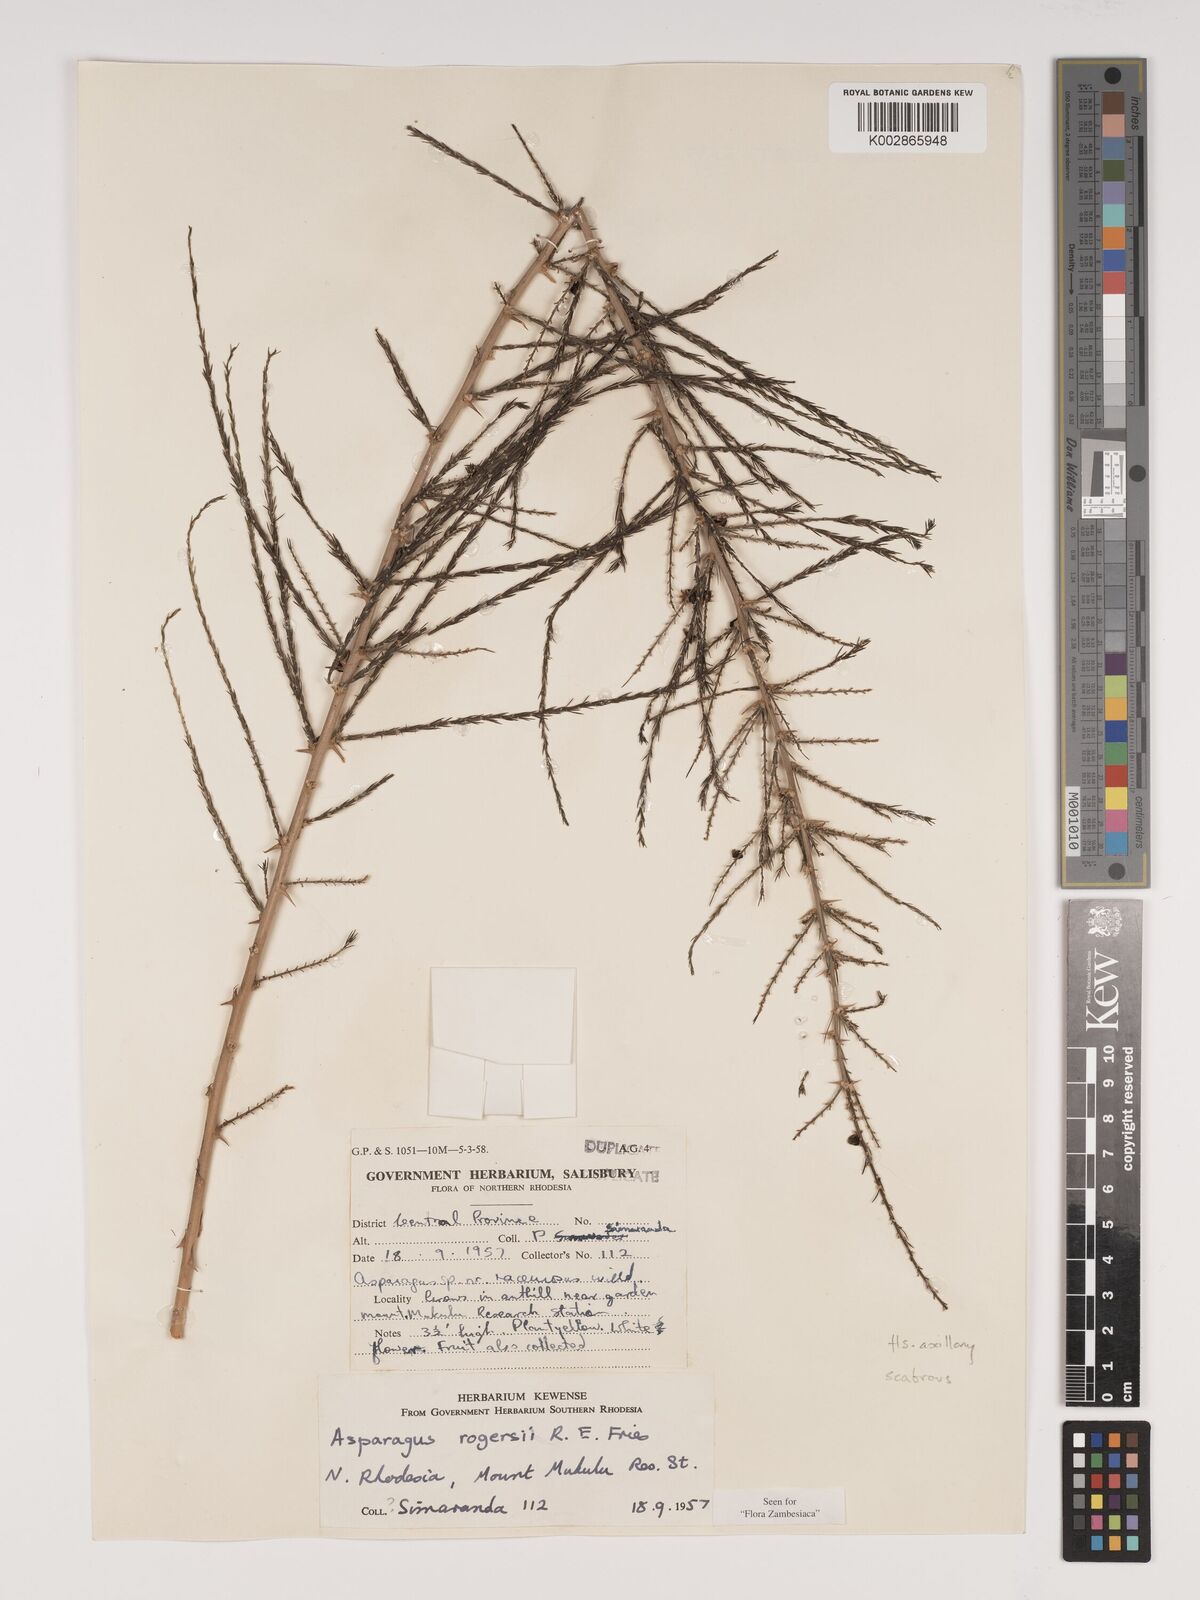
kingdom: Plantae
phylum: Tracheophyta
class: Liliopsida
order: Asparagales
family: Asparagaceae
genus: Asparagus
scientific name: Asparagus rogersii
